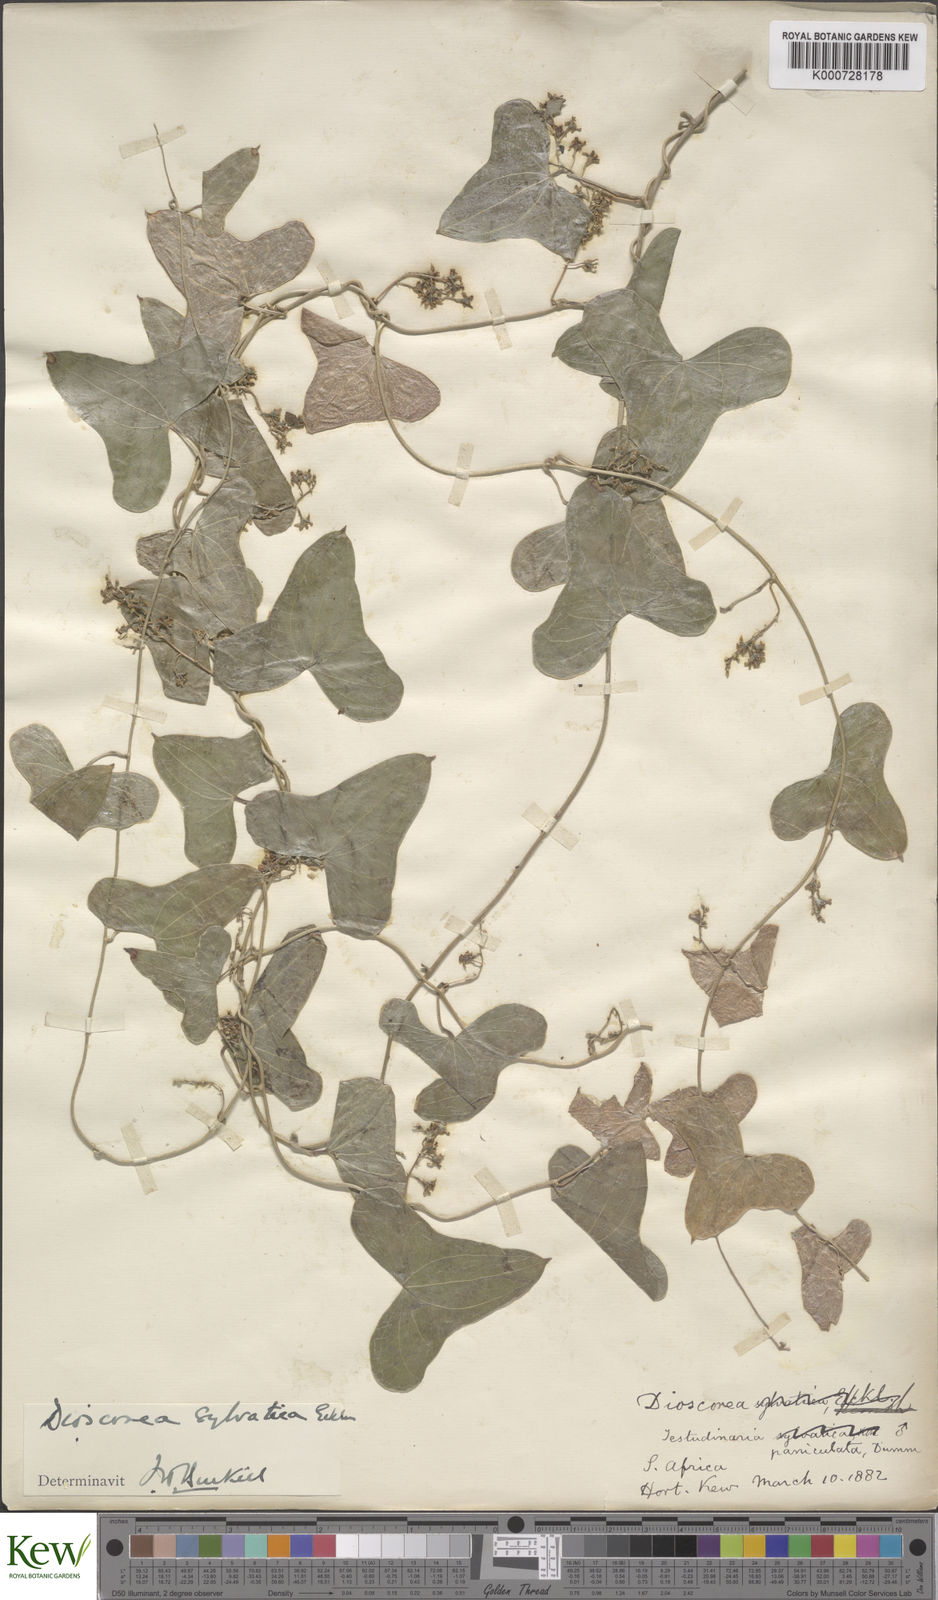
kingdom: Plantae
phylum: Tracheophyta
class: Liliopsida
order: Dioscoreales
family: Dioscoreaceae
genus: Dioscorea
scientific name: Dioscorea sylvatica
